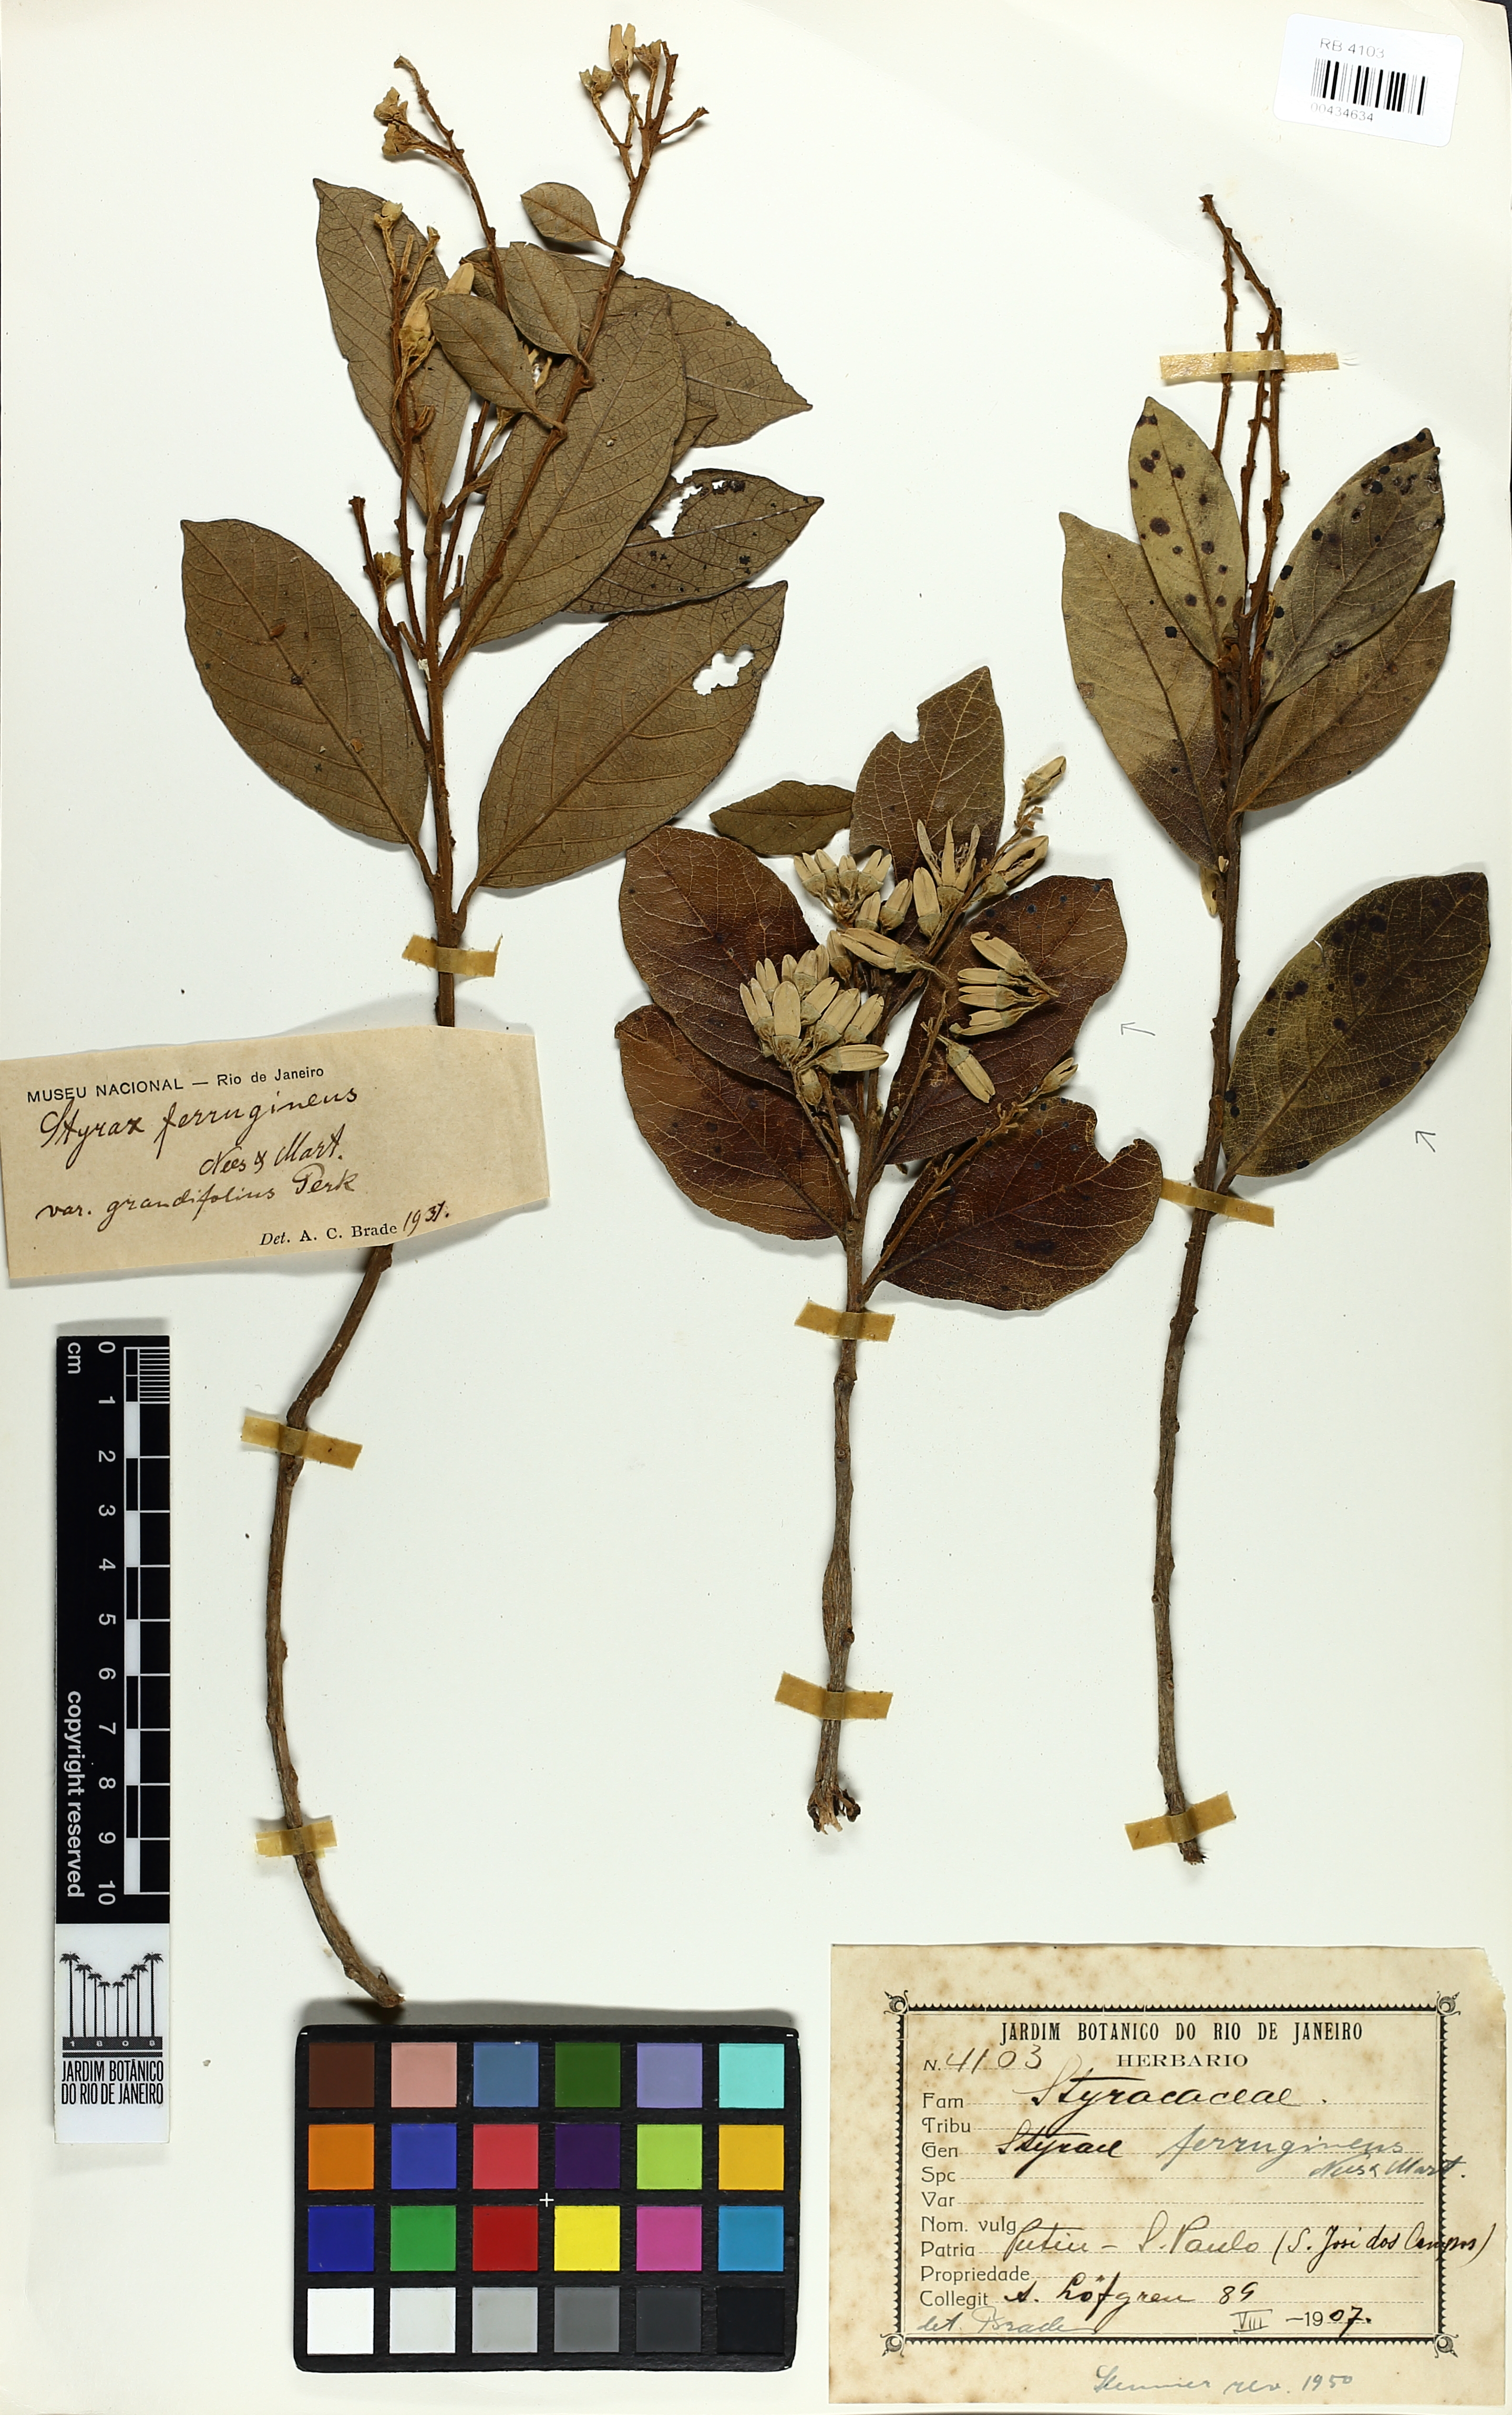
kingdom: Plantae
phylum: Tracheophyta
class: Magnoliopsida
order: Ericales
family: Styracaceae
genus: Styrax
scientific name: Styrax ferrugineus
